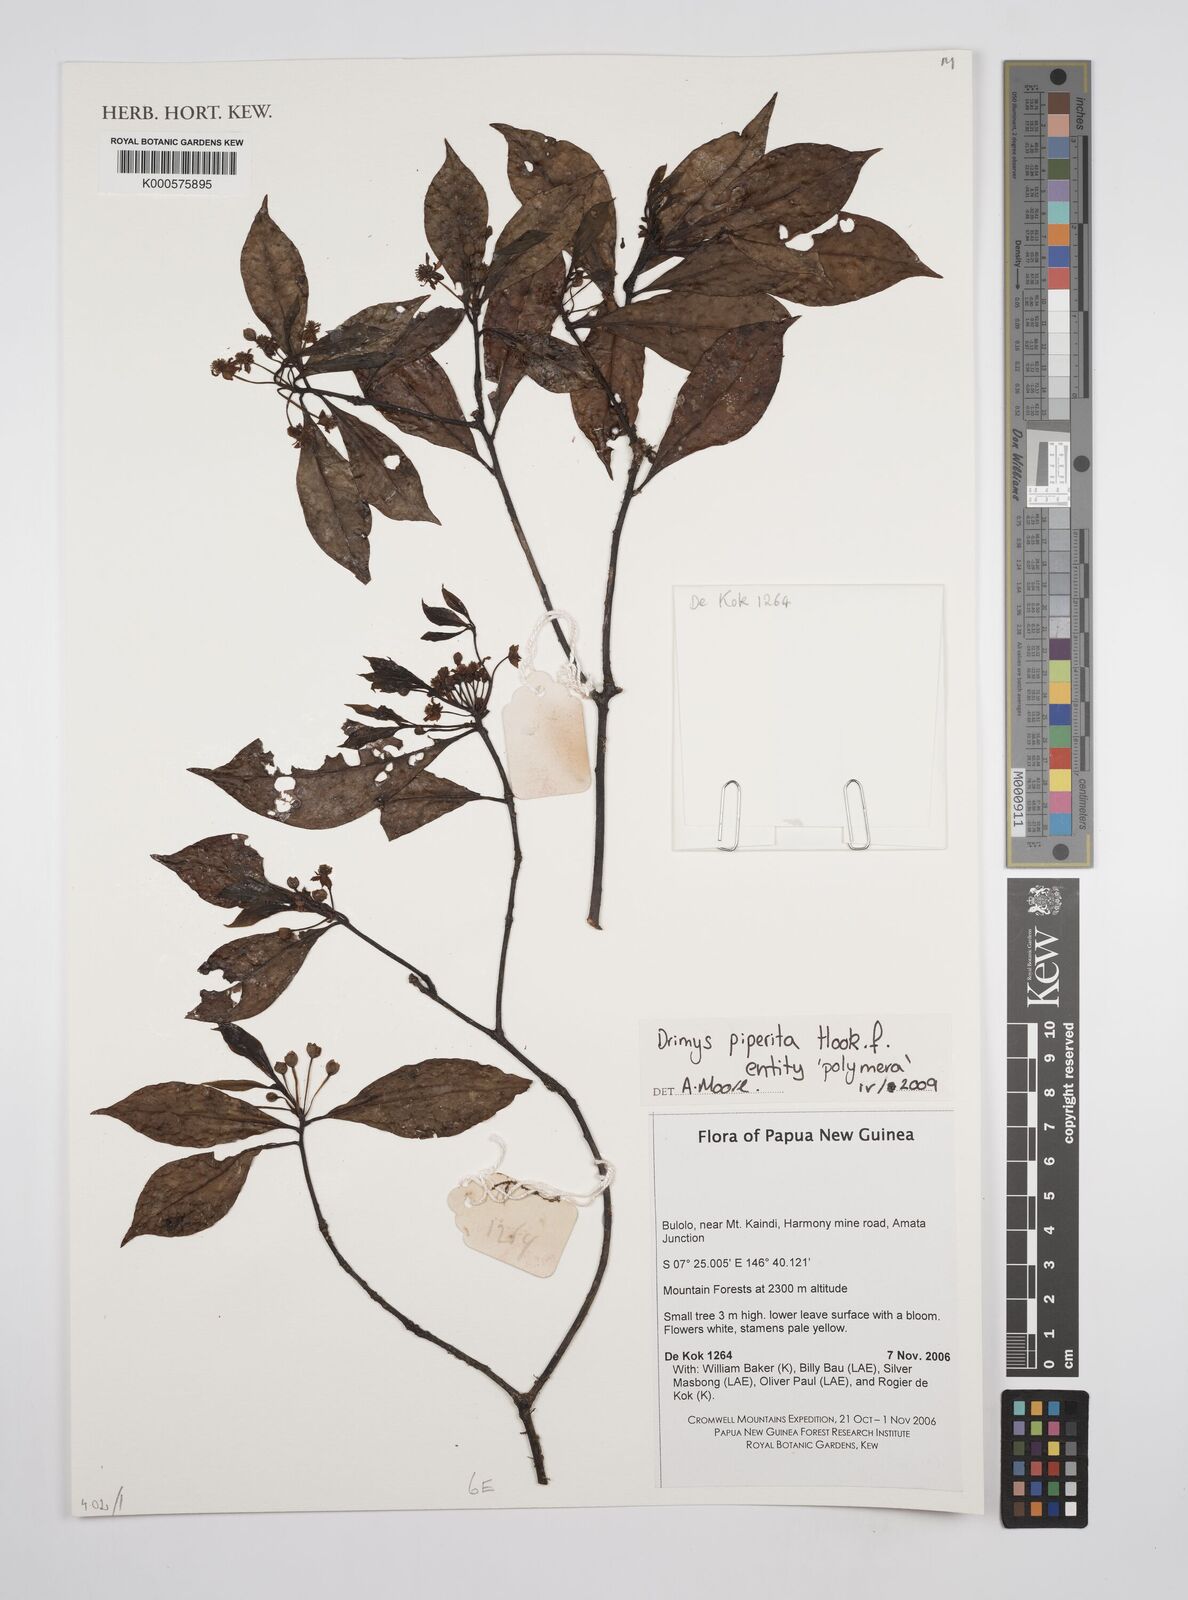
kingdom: Plantae
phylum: Tracheophyta
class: Magnoliopsida
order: Canellales
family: Winteraceae
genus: Drimys
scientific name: Drimys piperita
